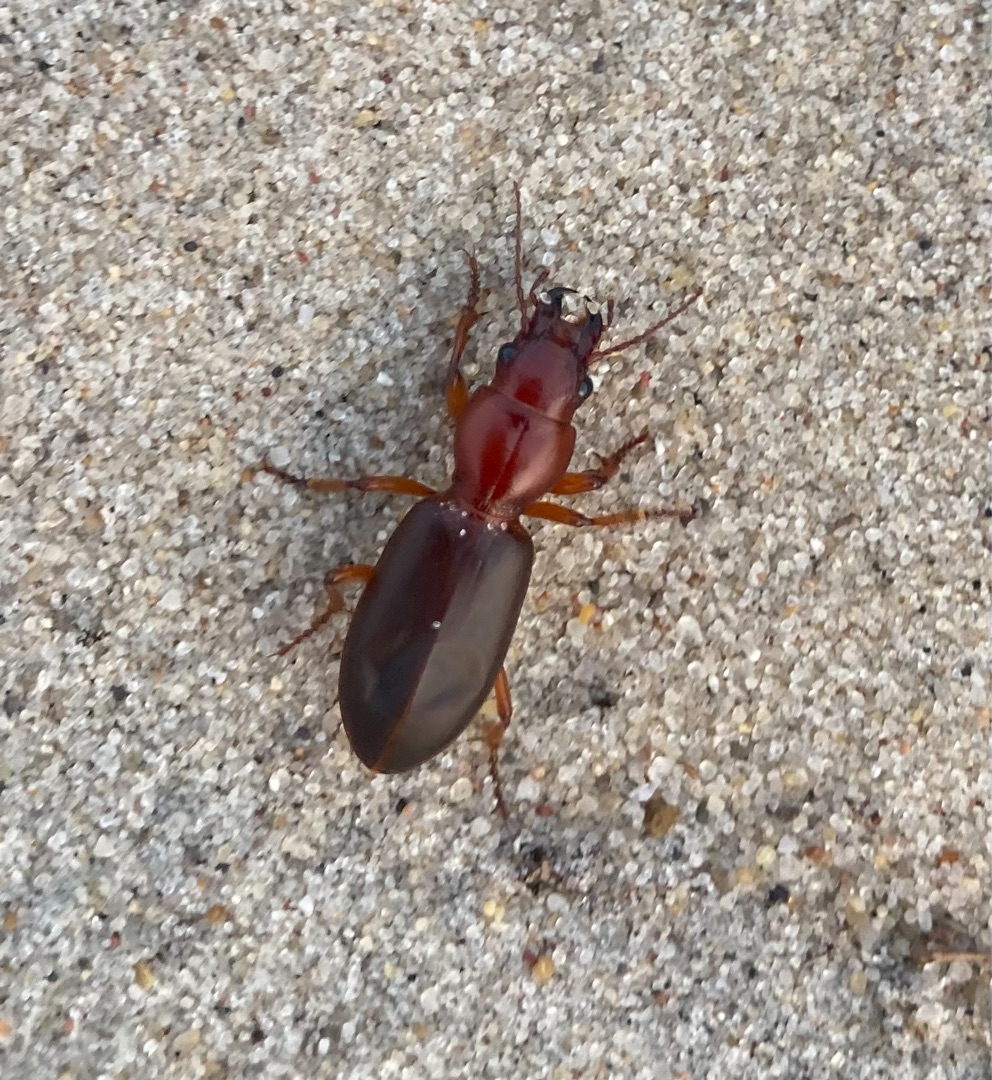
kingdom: Animalia
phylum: Arthropoda
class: Insecta
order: Coleoptera
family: Carabidae
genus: Broscus
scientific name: Broscus cephalotes
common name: Sandgraver
